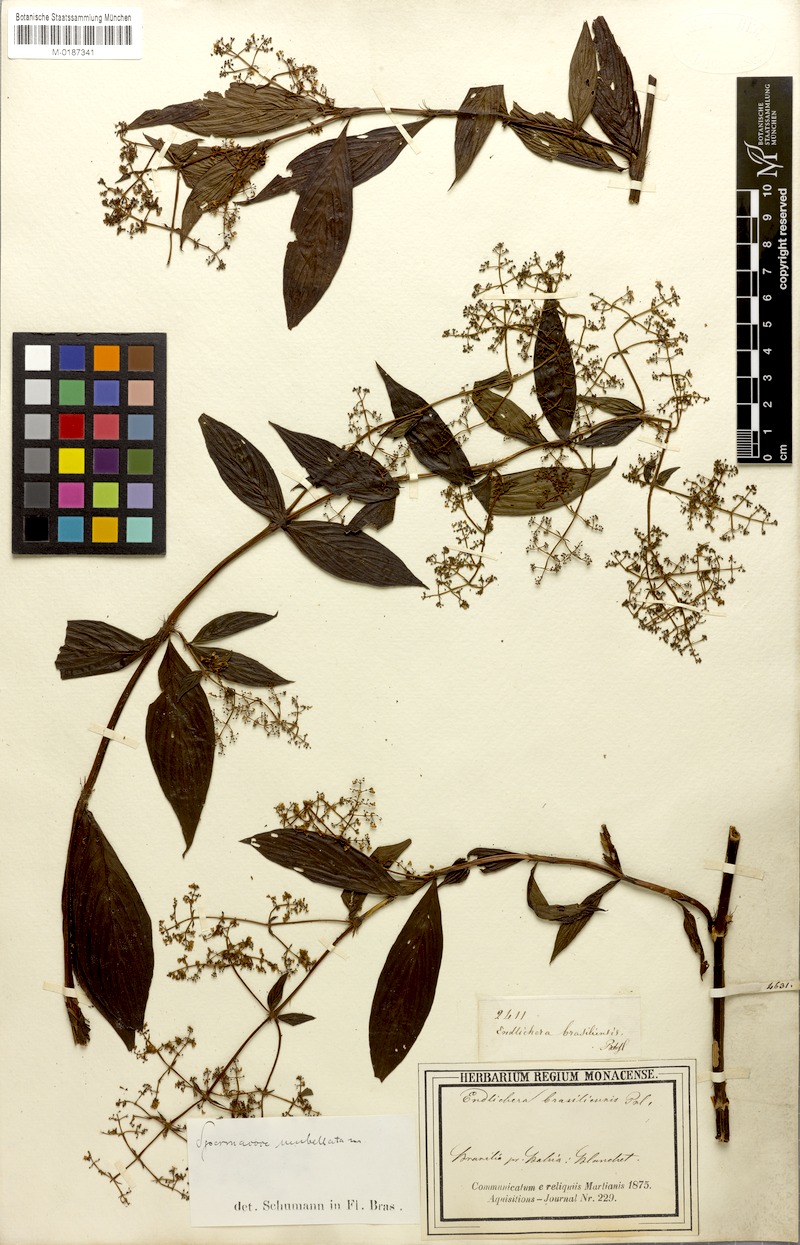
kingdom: Plantae
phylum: Tracheophyta
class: Magnoliopsida
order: Gentianales
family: Rubiaceae
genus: Emmeorhiza
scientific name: Emmeorhiza umbellata
